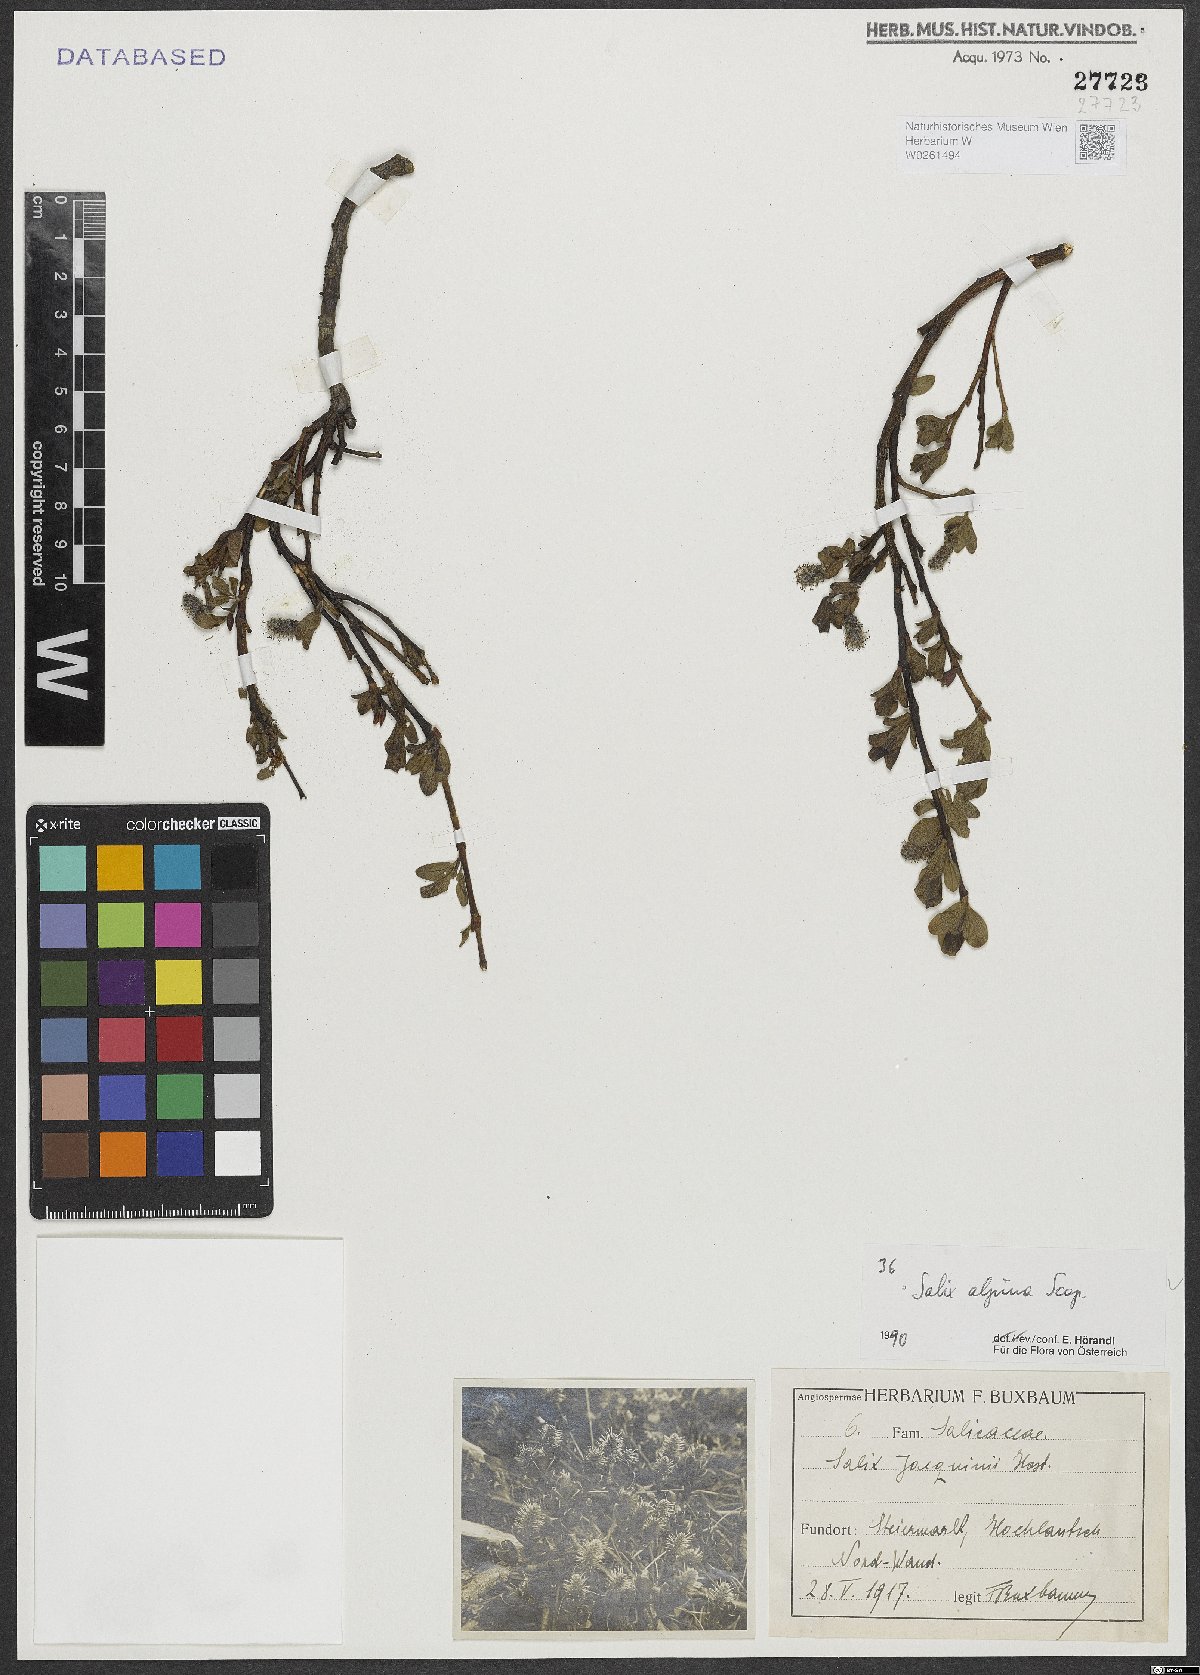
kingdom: Plantae
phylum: Tracheophyta
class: Magnoliopsida
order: Malpighiales
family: Salicaceae
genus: Salix
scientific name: Salix alpina
